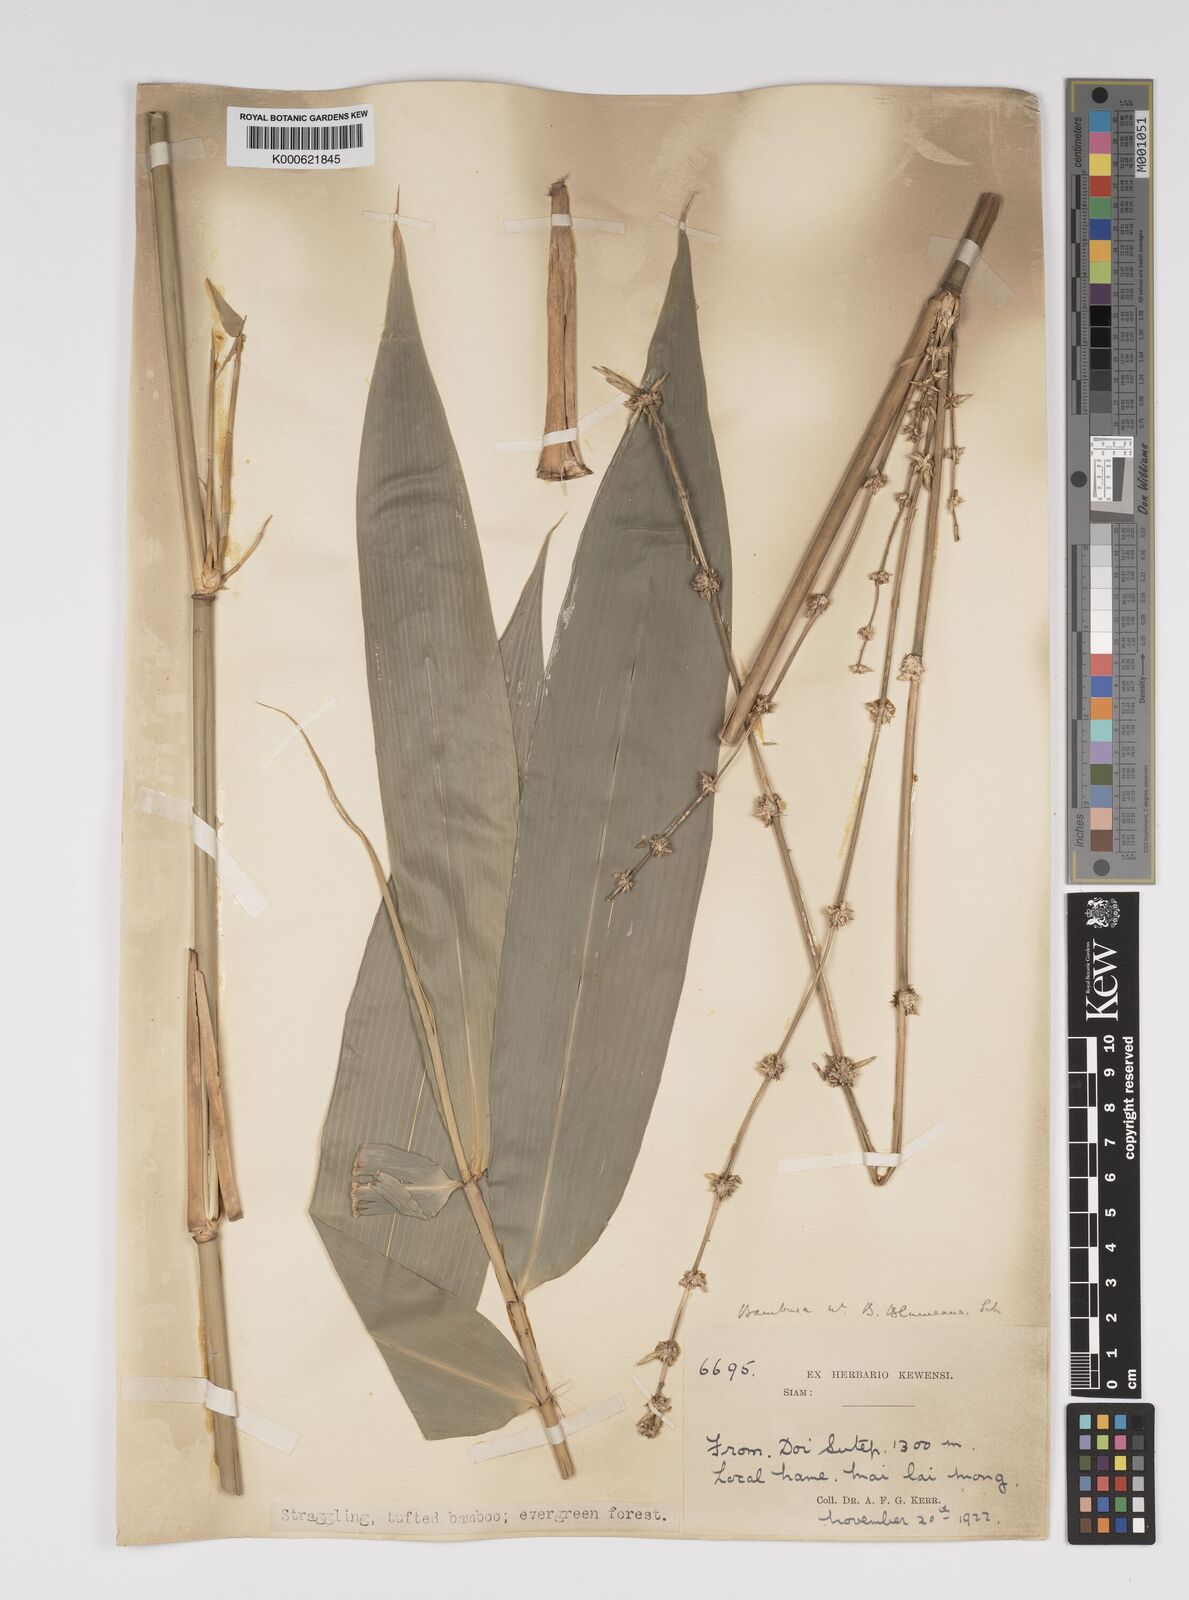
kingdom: Plantae
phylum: Tracheophyta
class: Liliopsida
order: Poales
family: Poaceae
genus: Bambusa
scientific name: Bambusa sesquiflora
